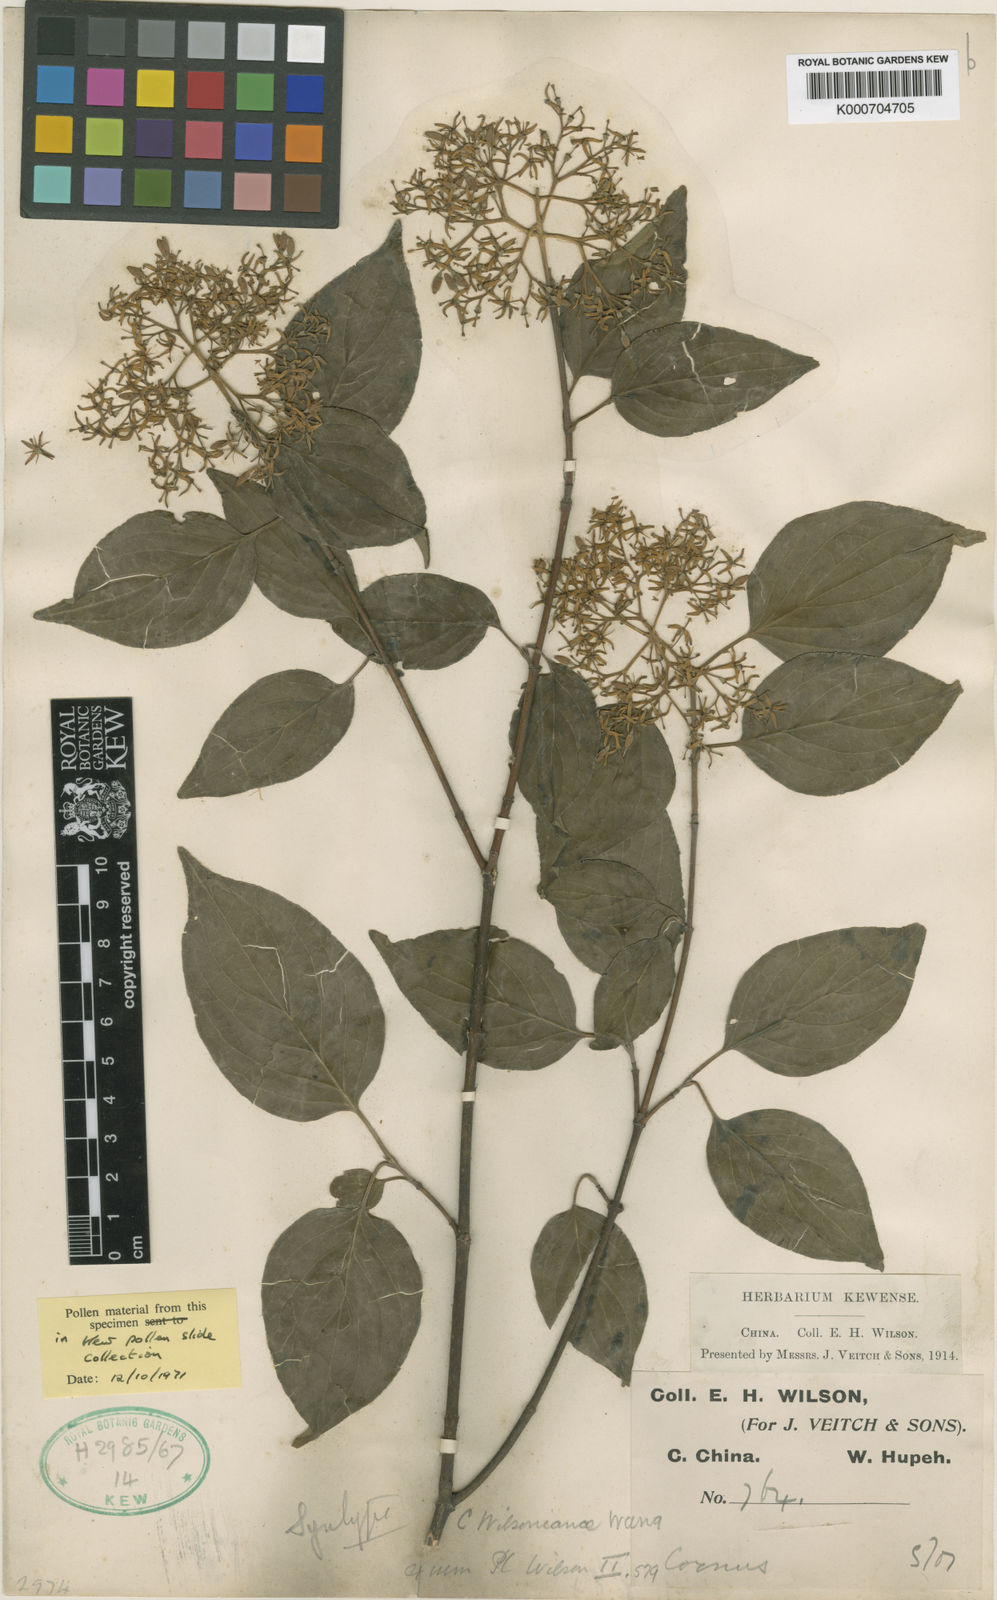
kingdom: Plantae
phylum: Tracheophyta
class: Magnoliopsida
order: Cornales
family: Cornaceae
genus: Cornus
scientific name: Cornus wilsoniana
